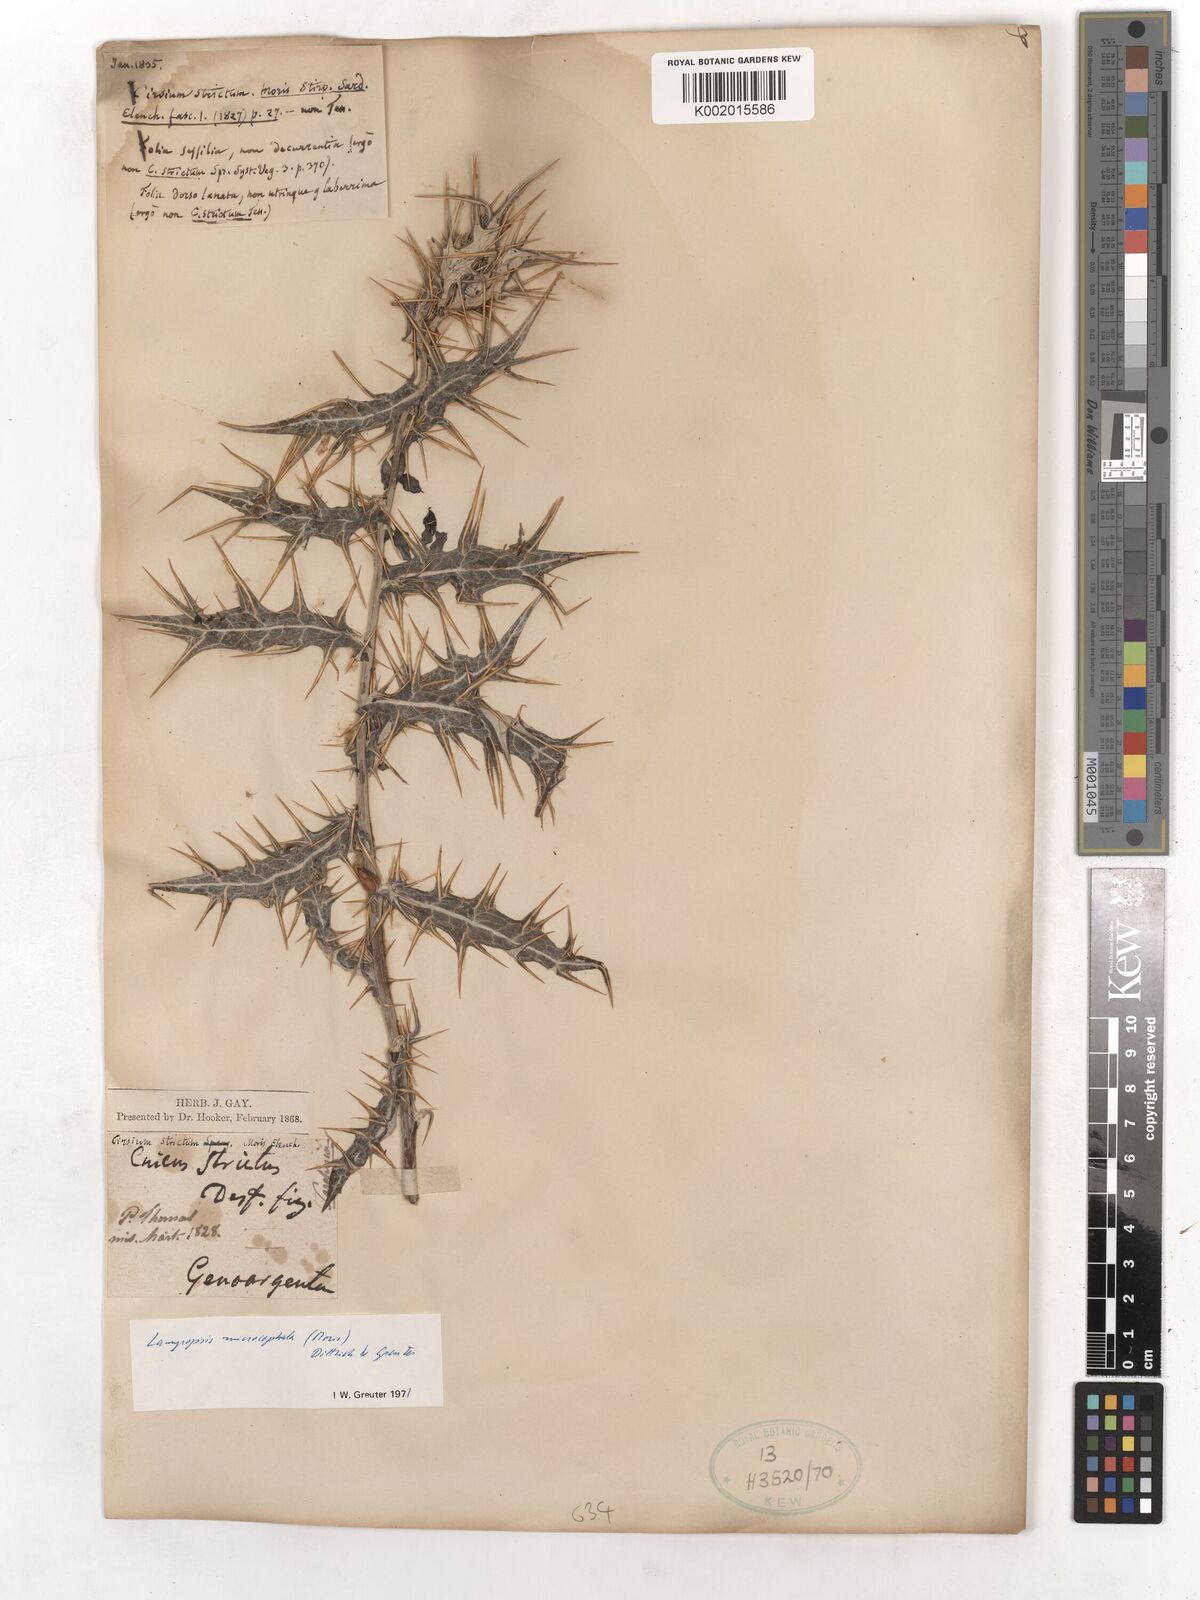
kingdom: Plantae
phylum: Tracheophyta
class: Magnoliopsida
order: Asterales
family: Asteraceae
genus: Cirsium
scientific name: Cirsium vulgare
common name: Bull thistle
